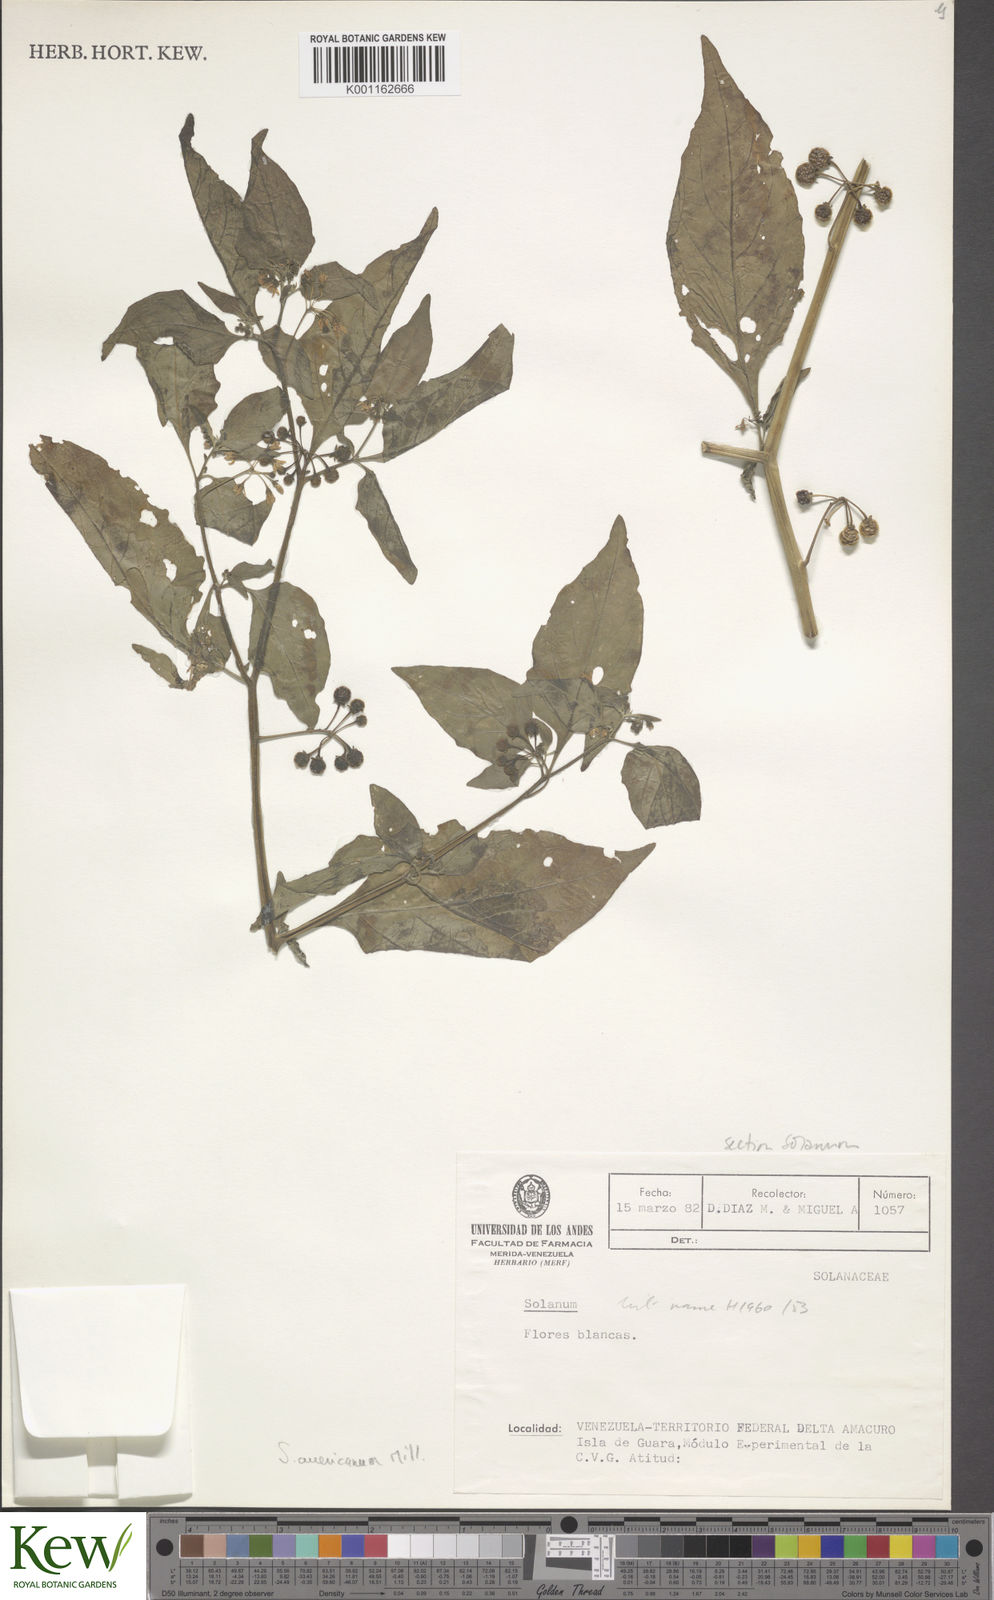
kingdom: Plantae
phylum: Tracheophyta
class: Magnoliopsida
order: Solanales
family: Solanaceae
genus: Solanum
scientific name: Solanum americanum
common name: American black nightshade
